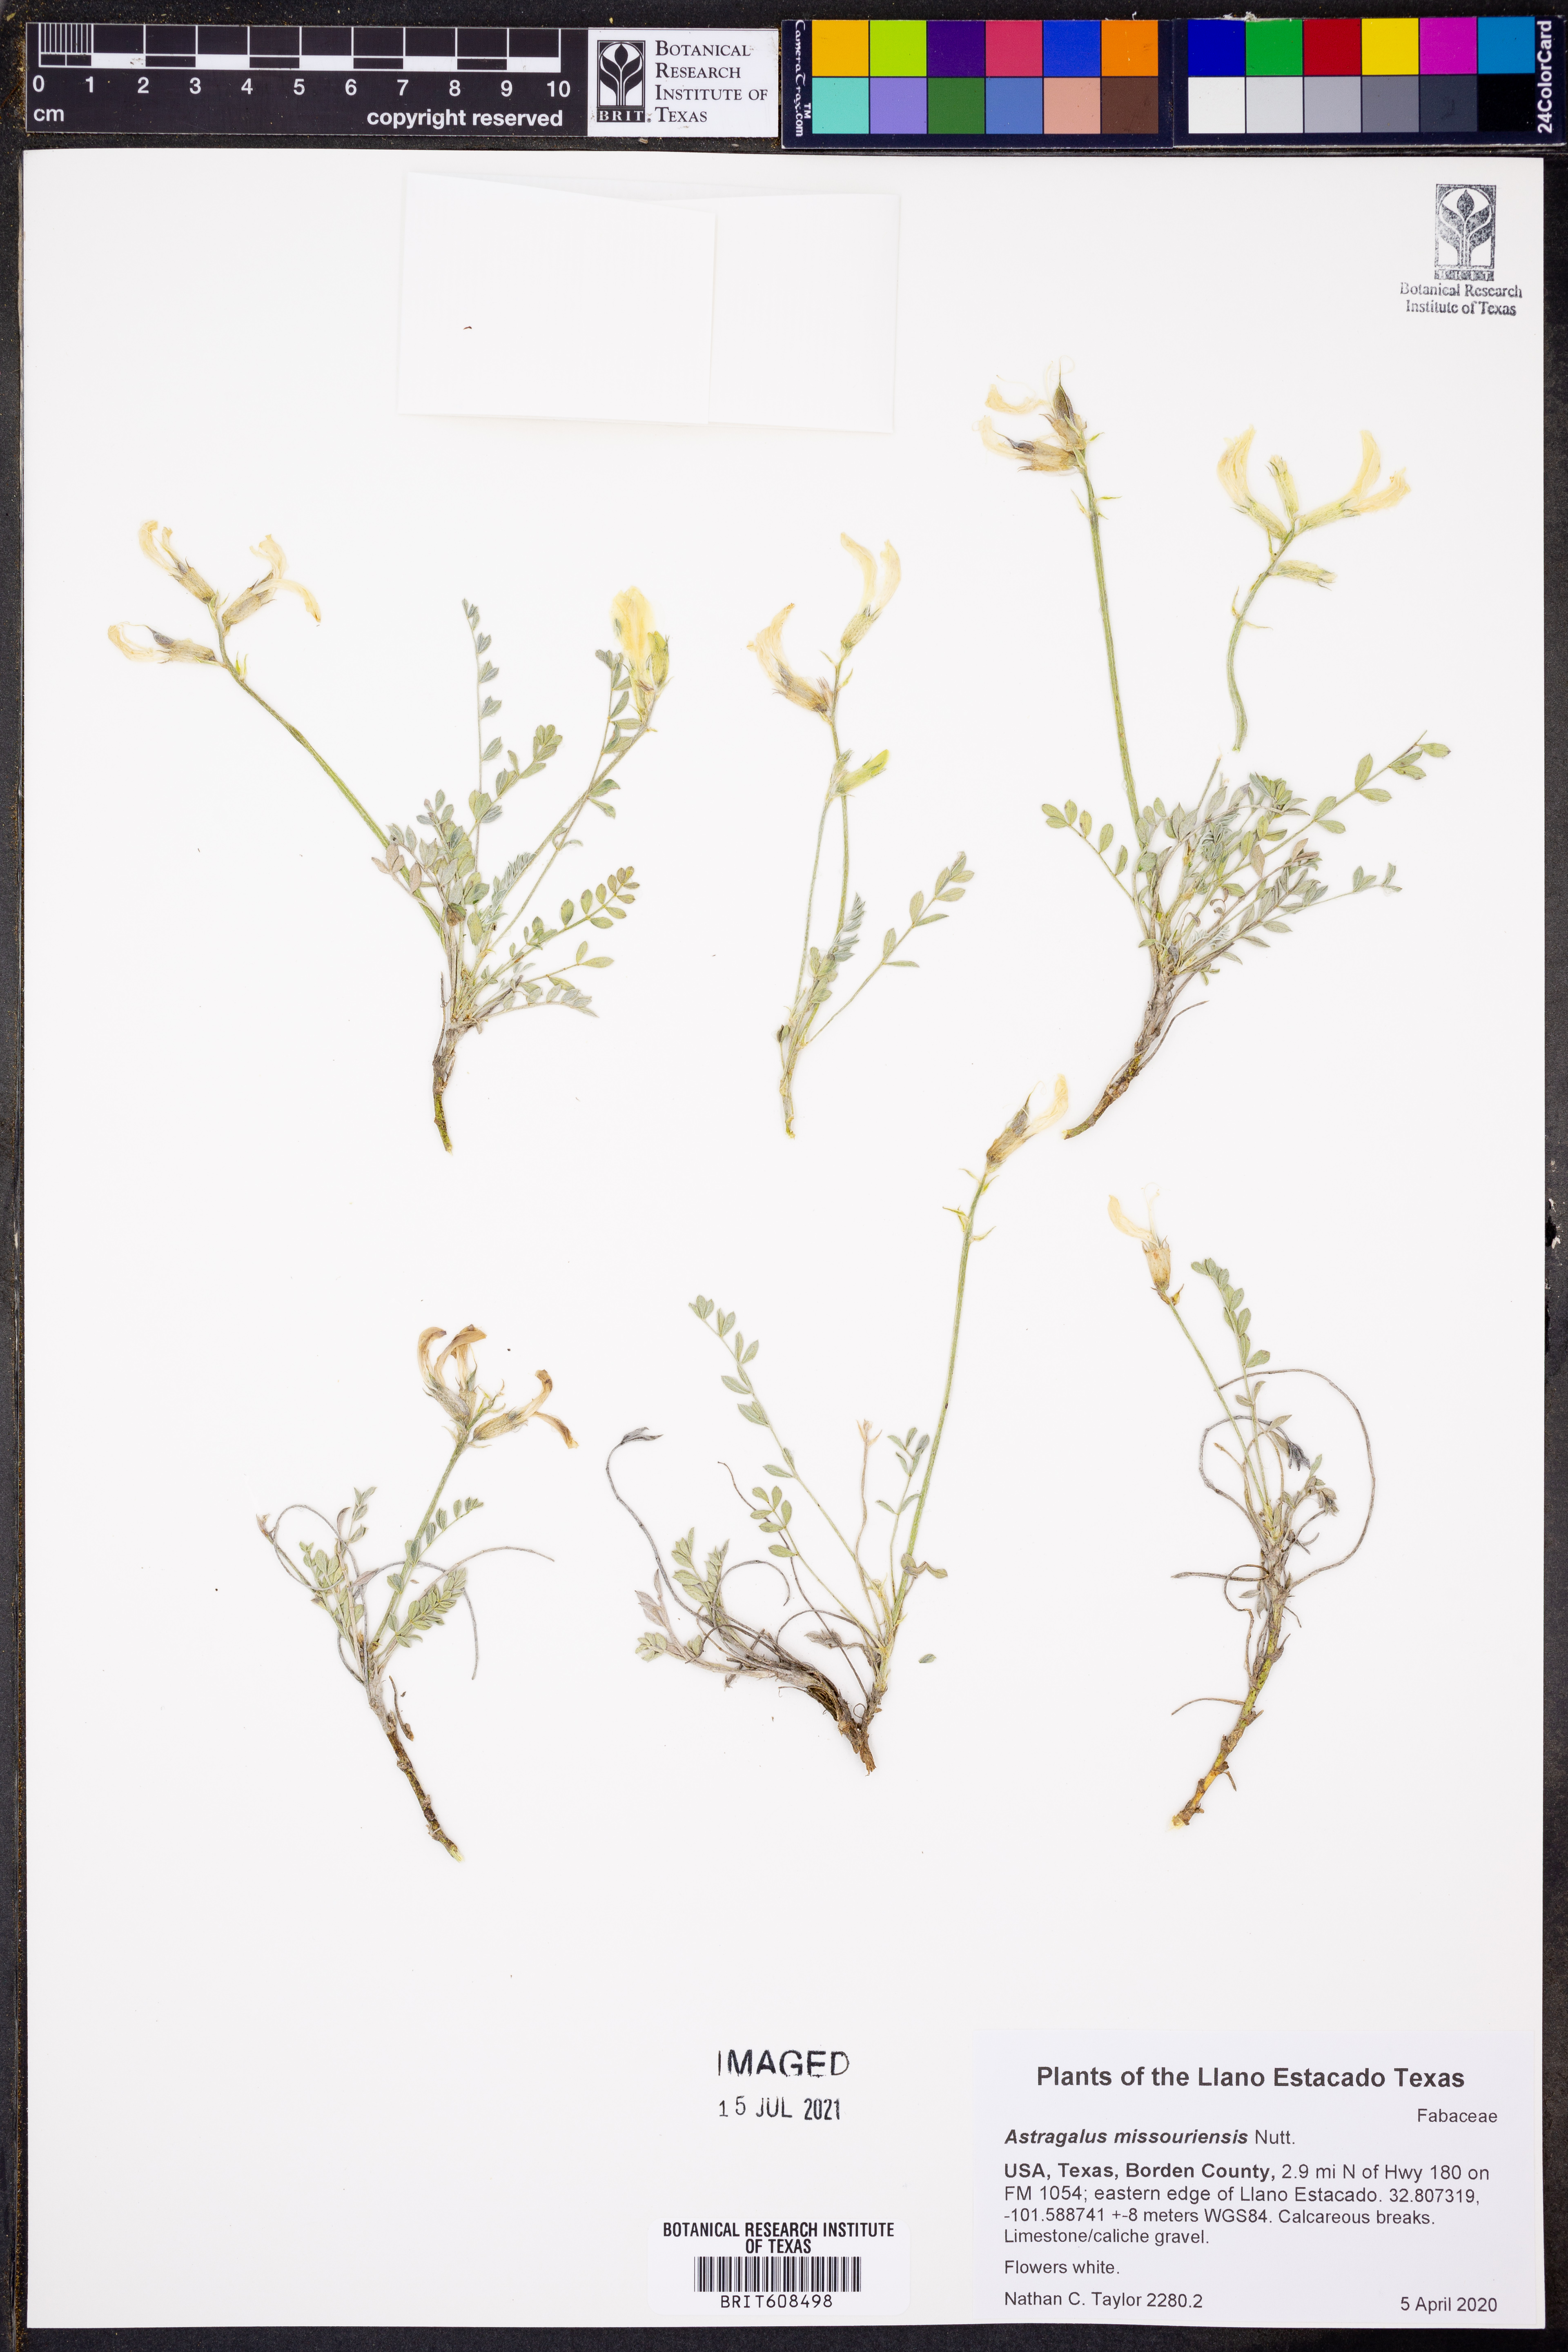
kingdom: Plantae
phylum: Tracheophyta
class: Magnoliopsida
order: Fabales
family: Fabaceae
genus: Astragalus
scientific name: Astragalus missouriensis
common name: Missouri milk-vetch
